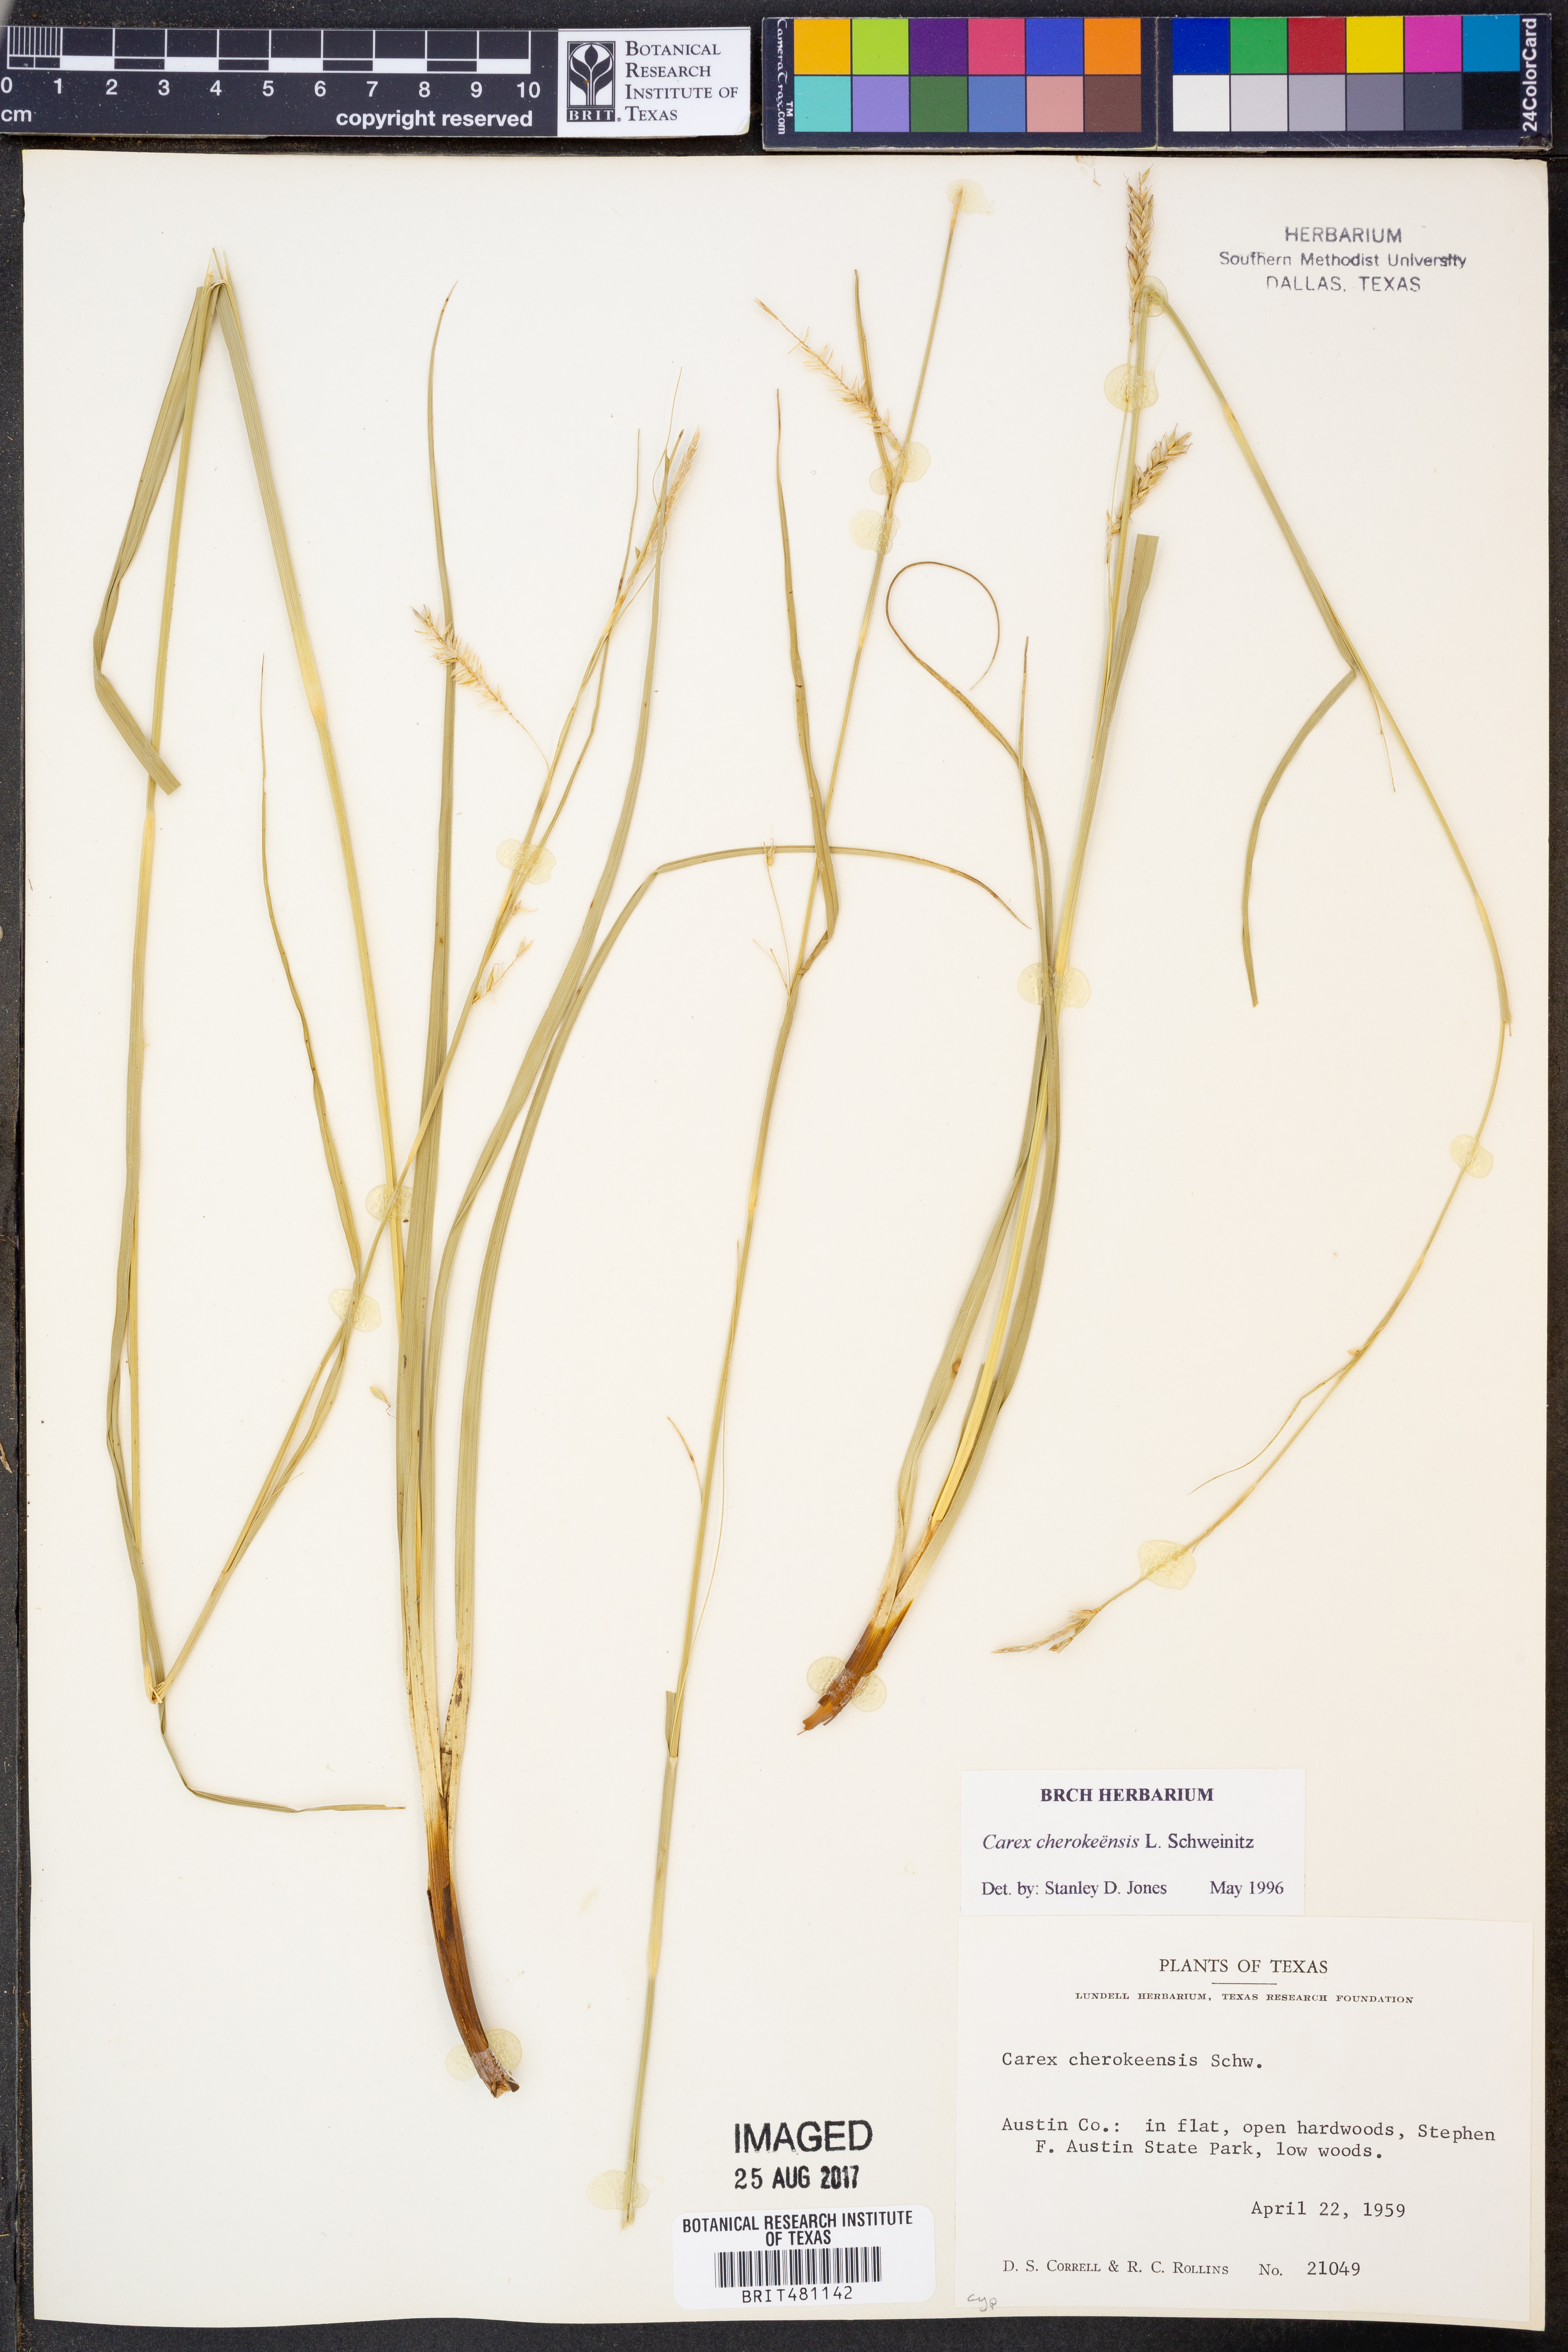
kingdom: Plantae
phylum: Tracheophyta
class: Liliopsida
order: Poales
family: Cyperaceae
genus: Carex
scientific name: Carex cherokeensis
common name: Cherokee sedge
